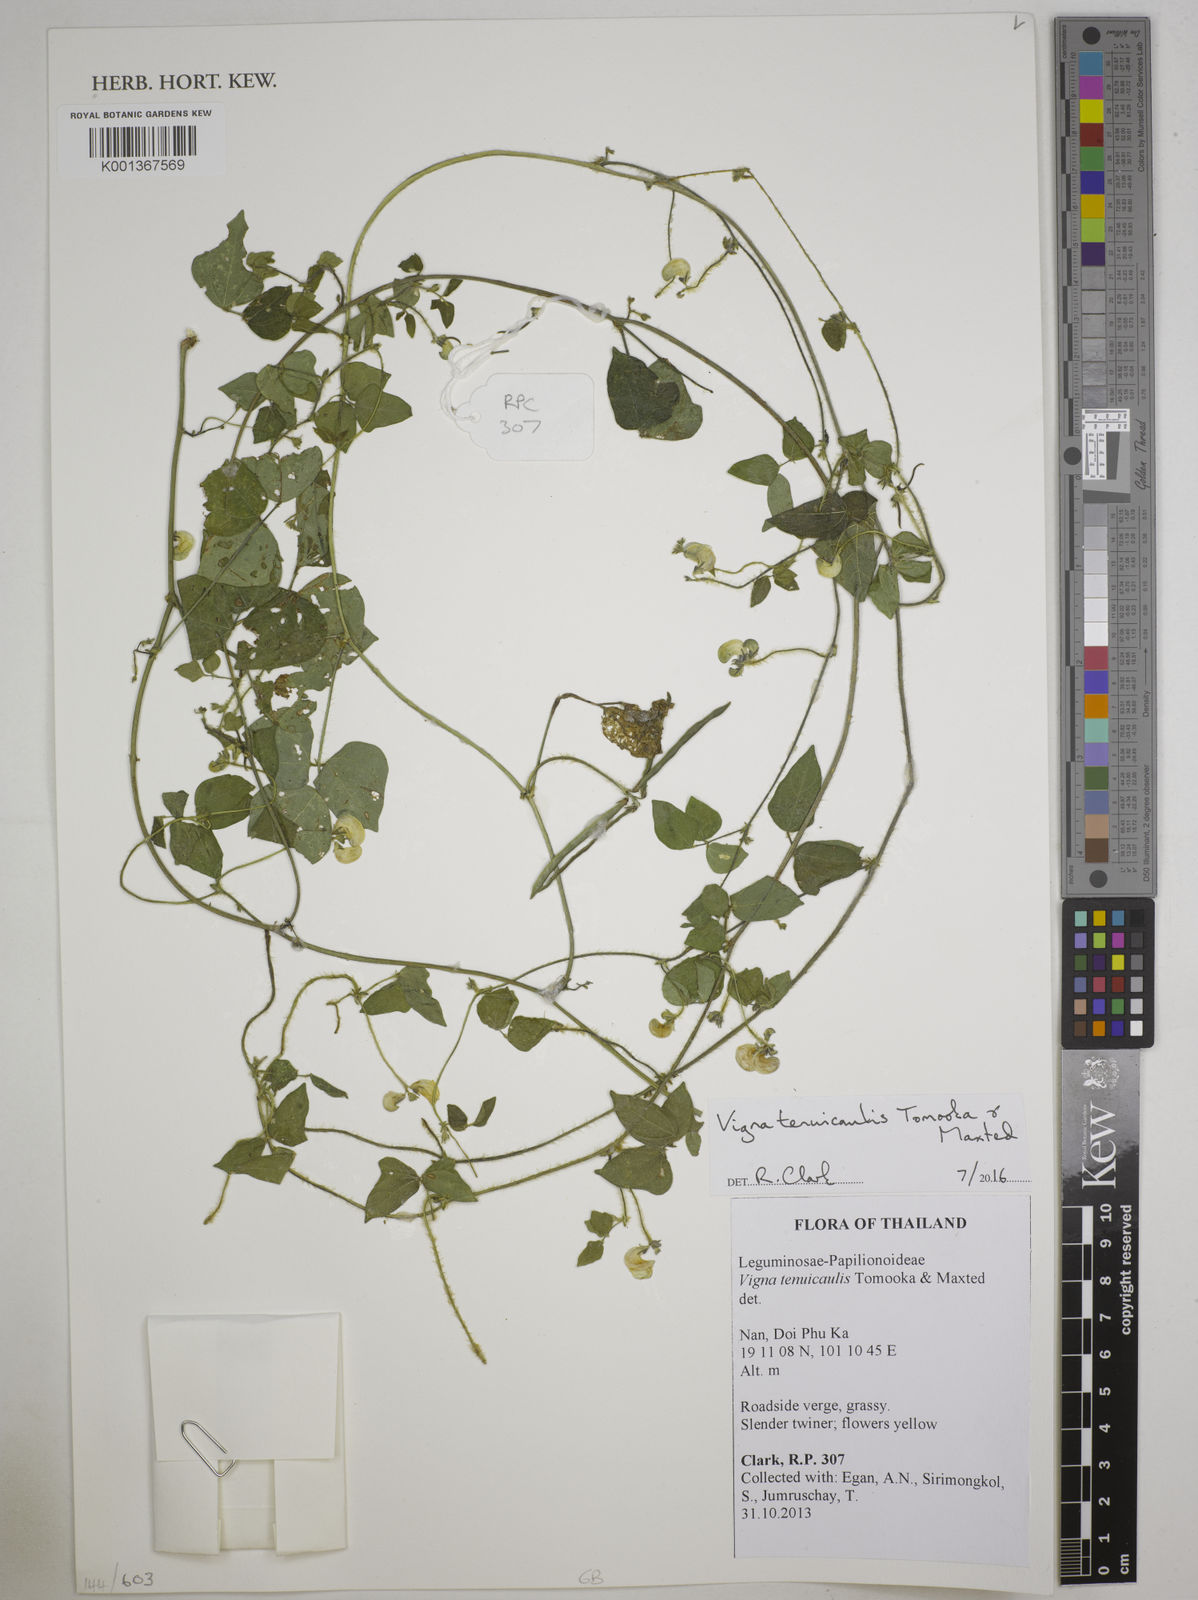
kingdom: Plantae
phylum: Tracheophyta
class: Magnoliopsida
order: Fabales
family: Fabaceae
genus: Vigna
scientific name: Vigna
